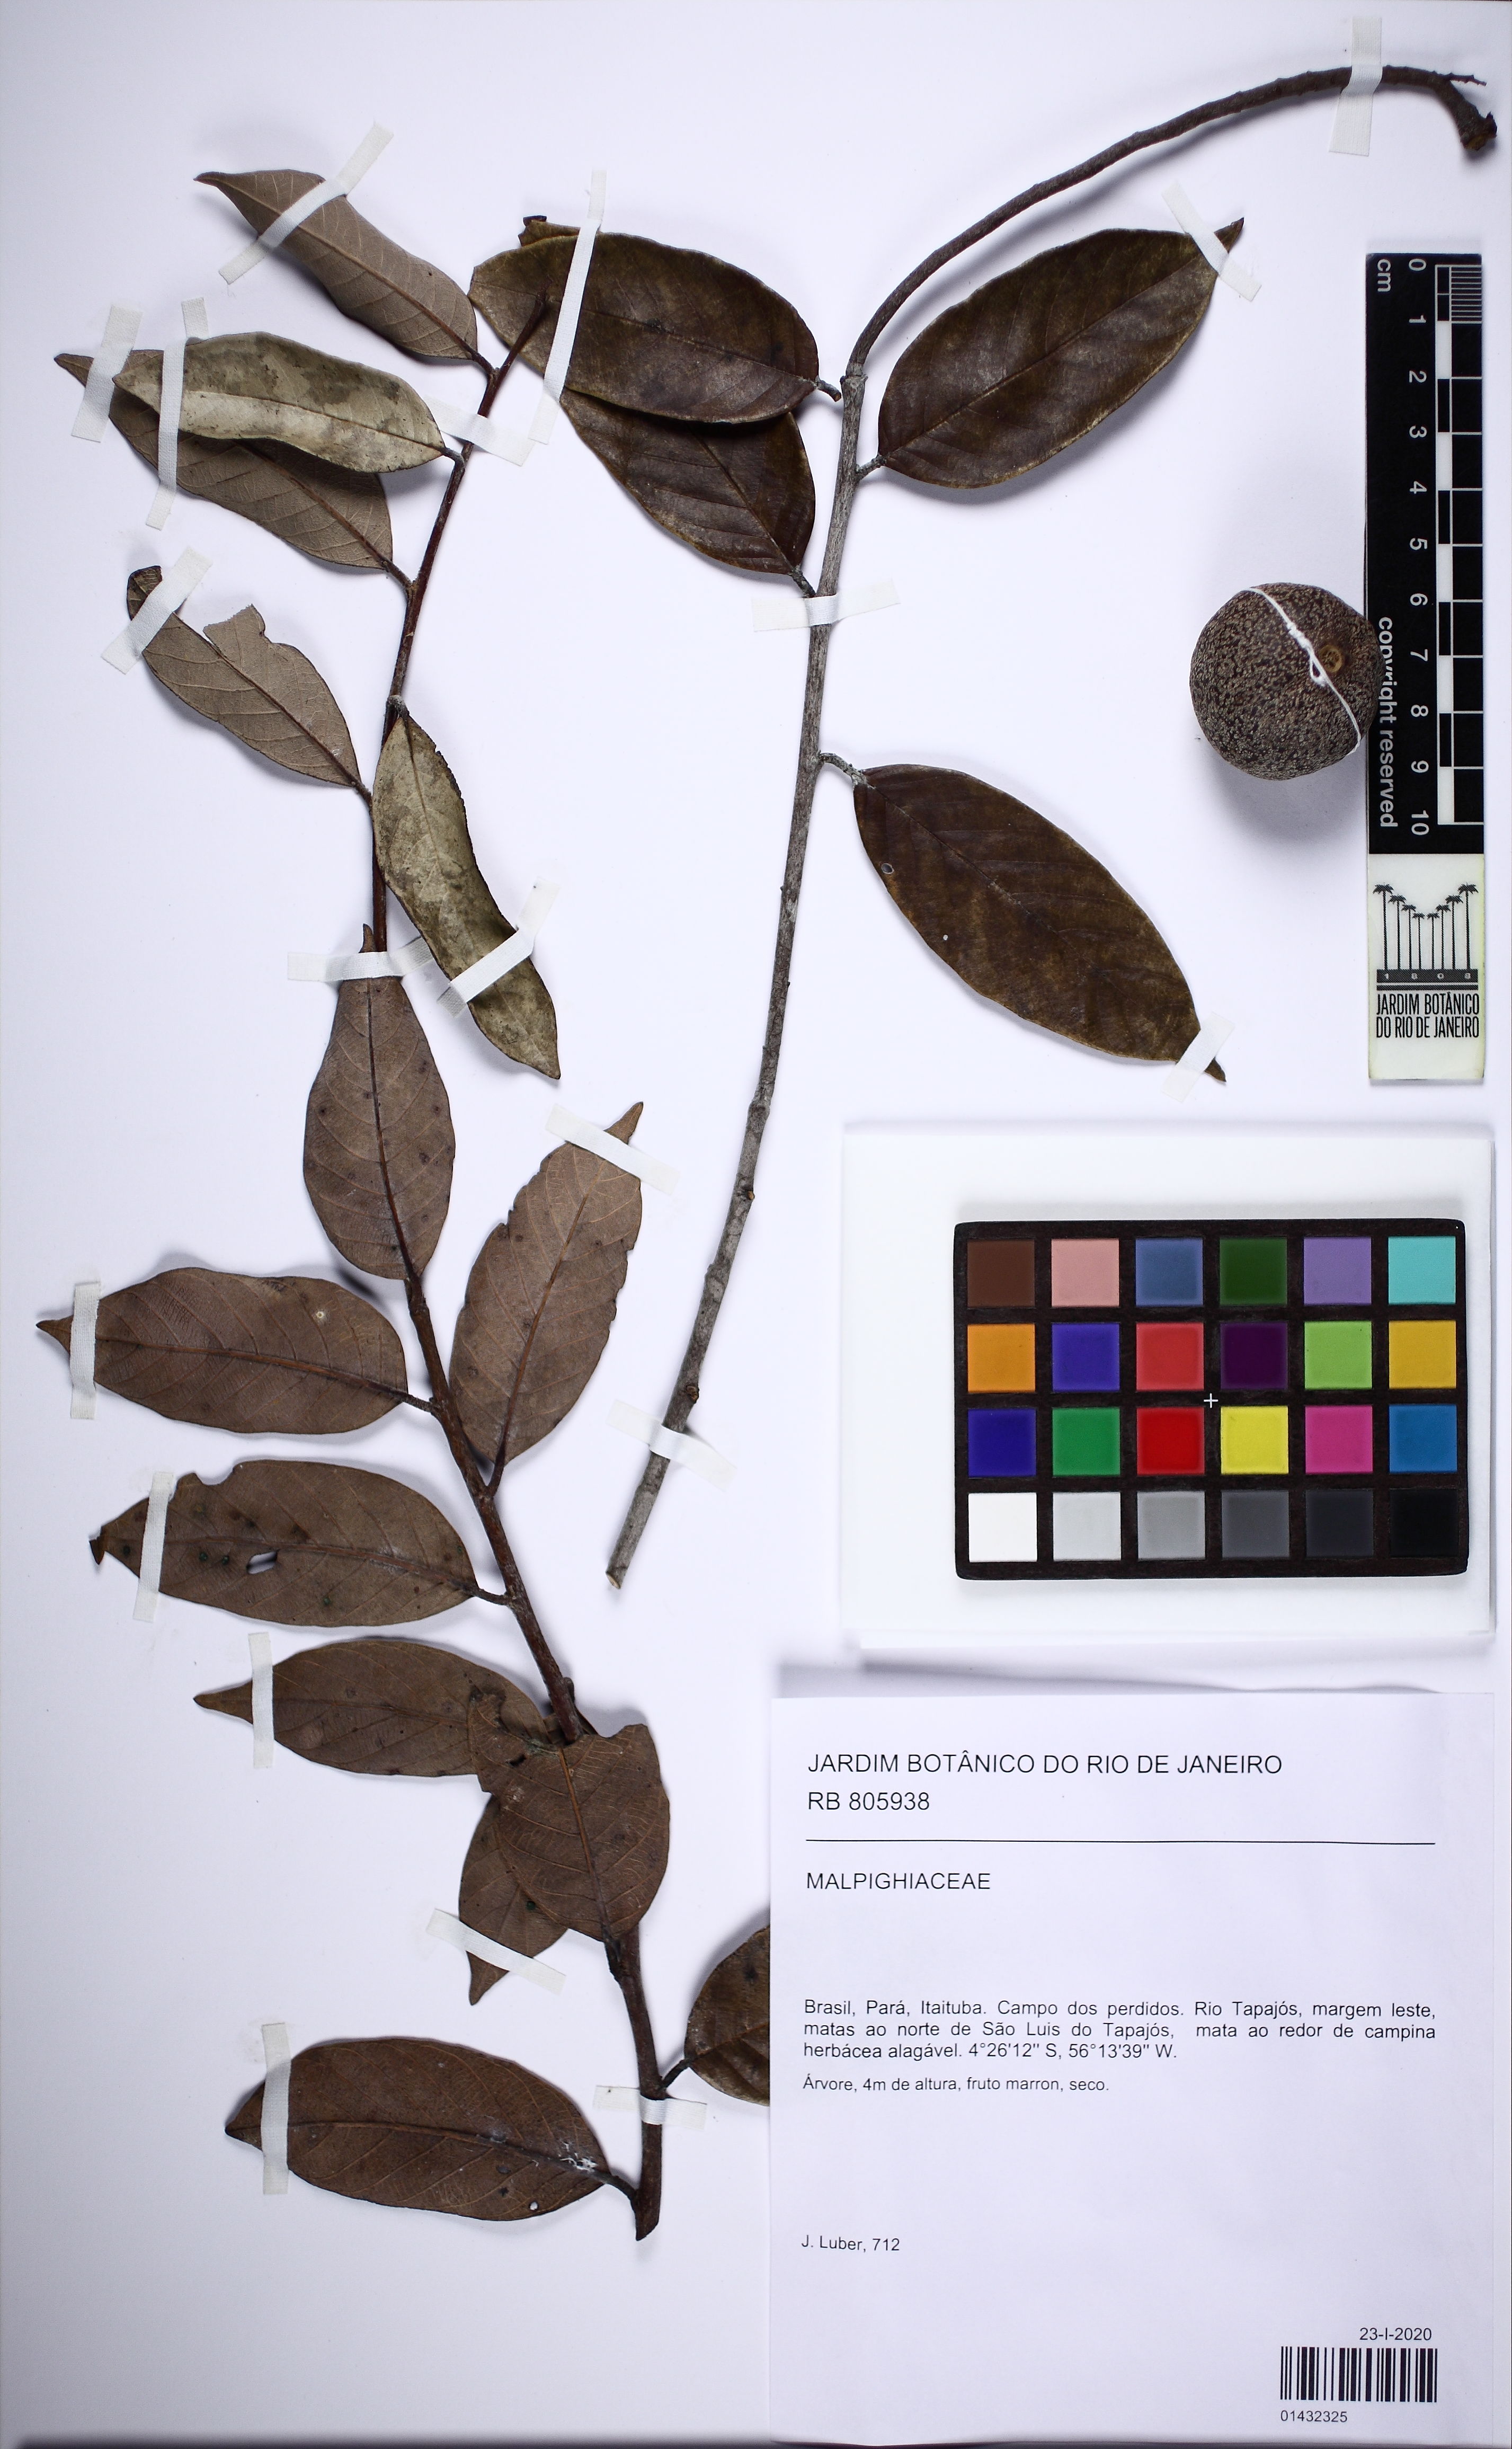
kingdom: Plantae
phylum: Tracheophyta
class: Magnoliopsida
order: Malpighiales
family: Chrysobalanaceae
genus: Gaulettia
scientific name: Gaulettia
